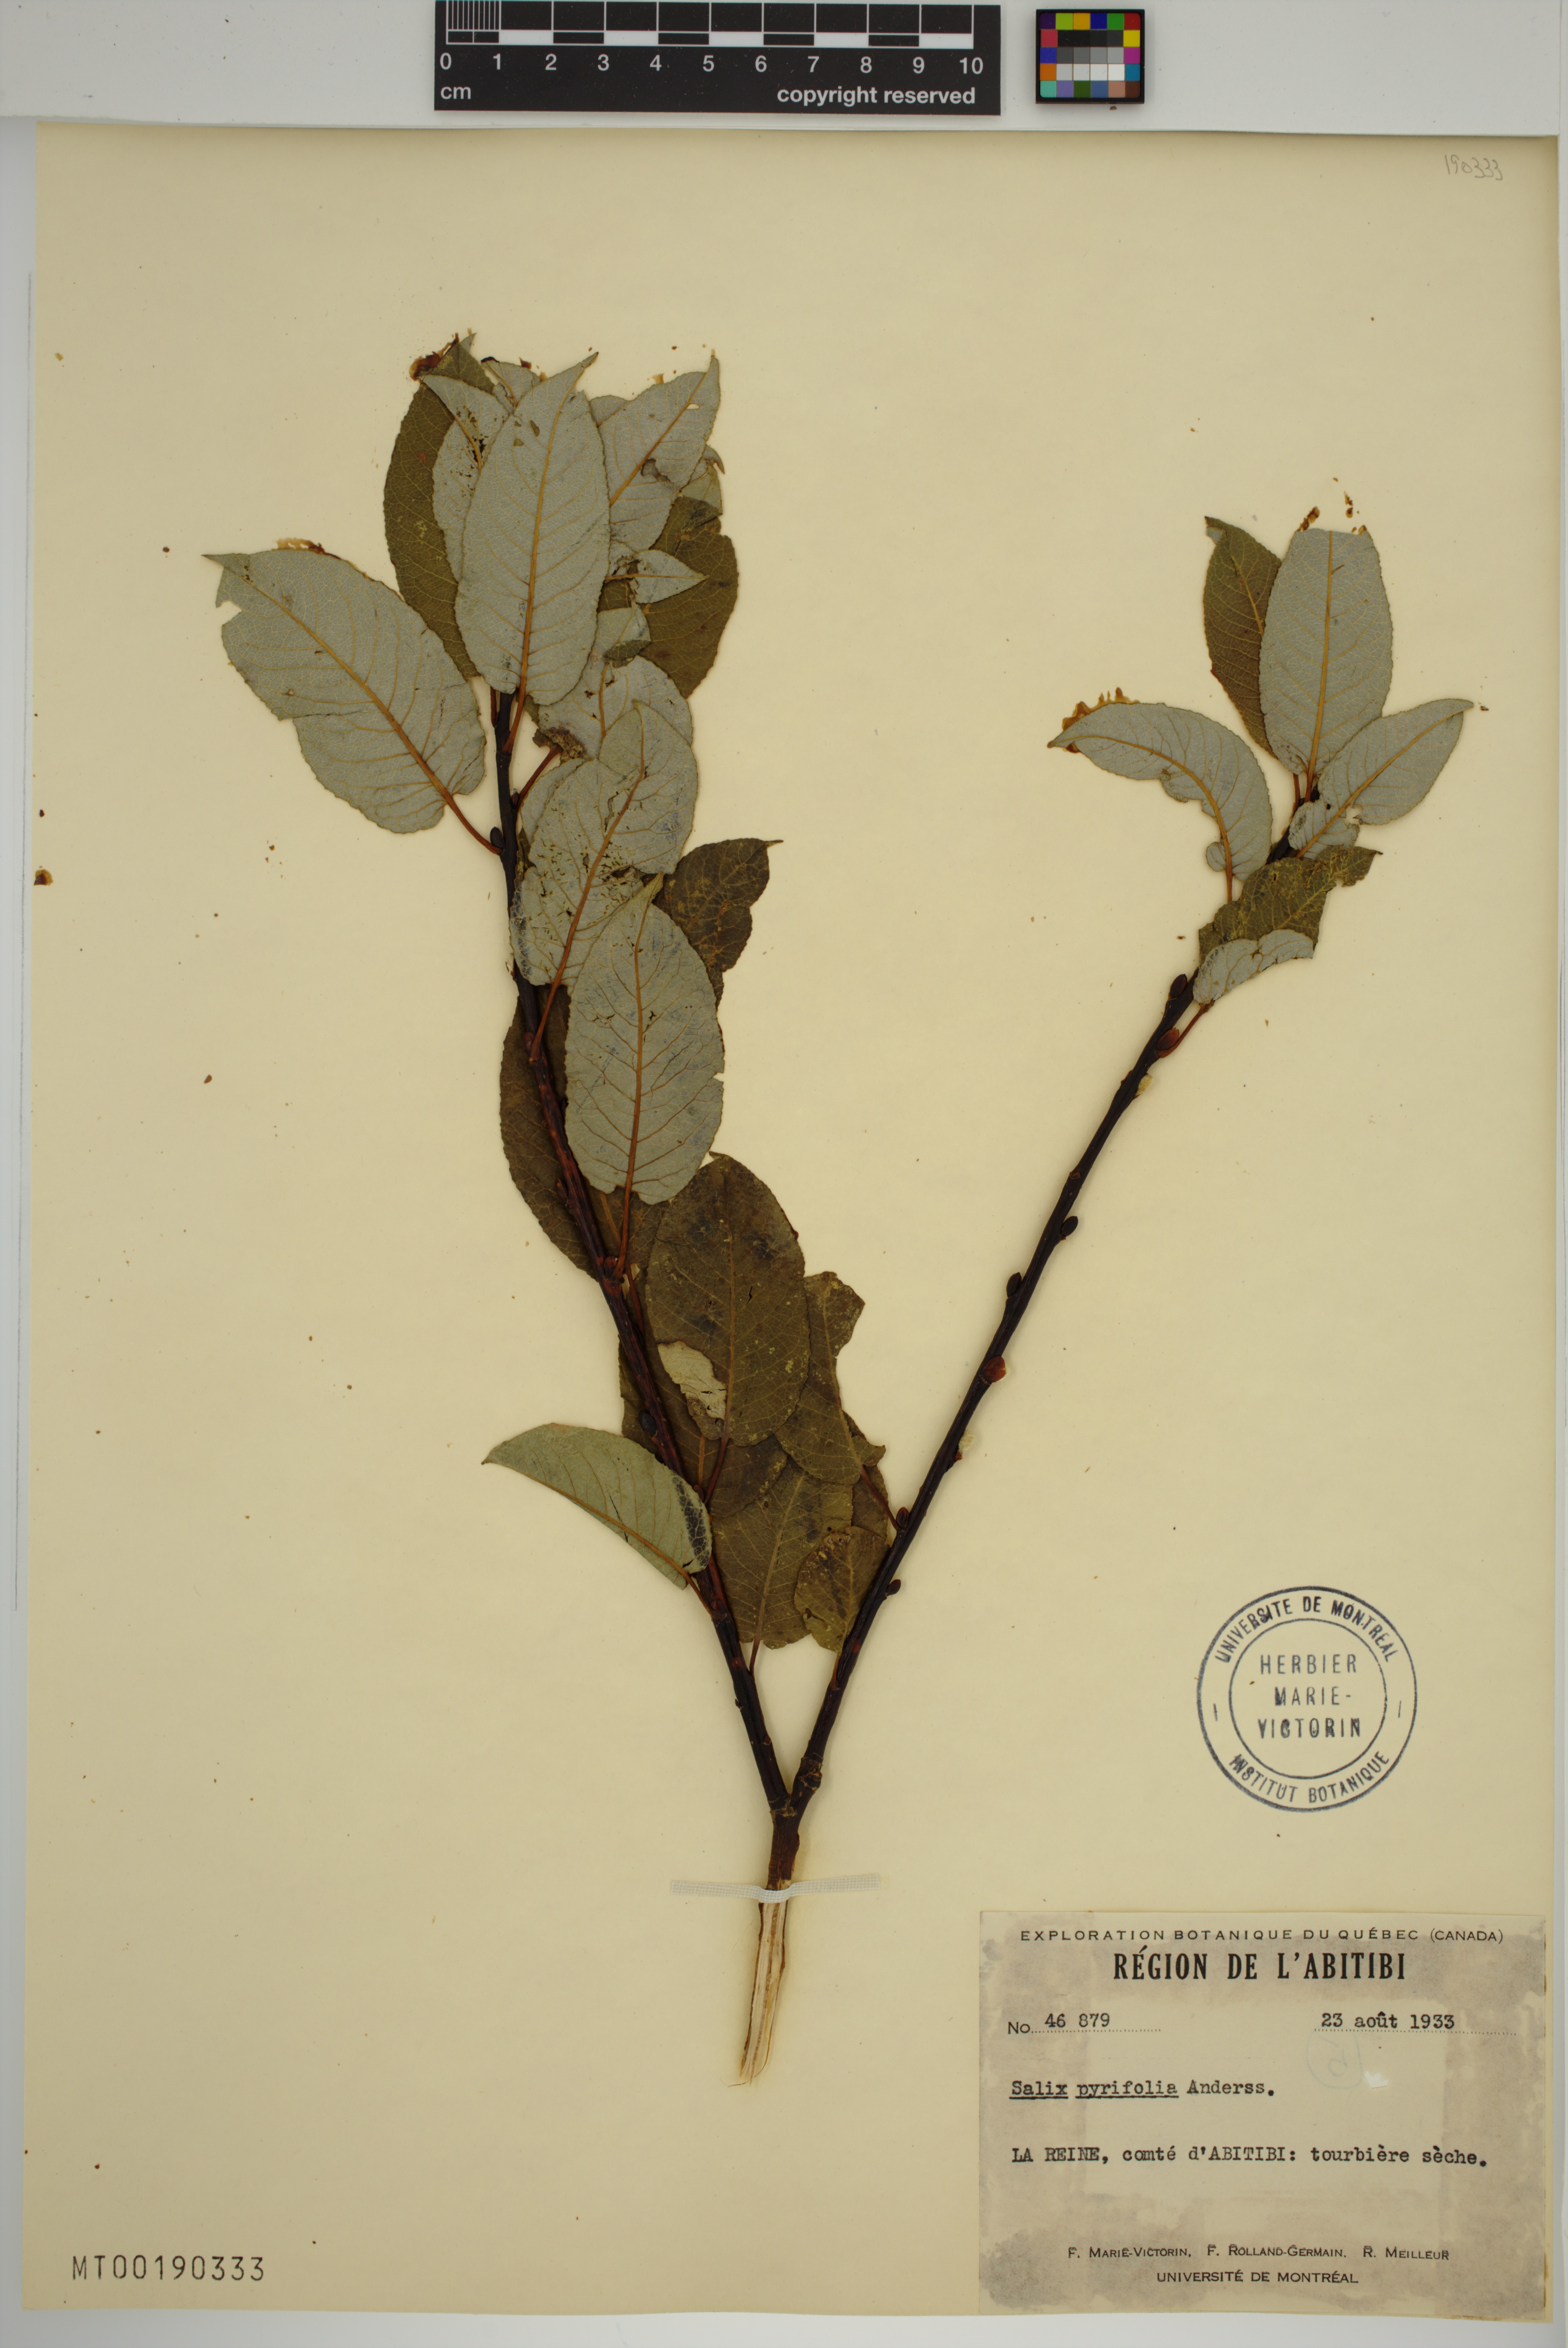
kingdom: Plantae
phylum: Tracheophyta
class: Magnoliopsida
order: Malpighiales
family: Salicaceae
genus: Salix
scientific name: Salix pyrifolia
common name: Balsam willow
